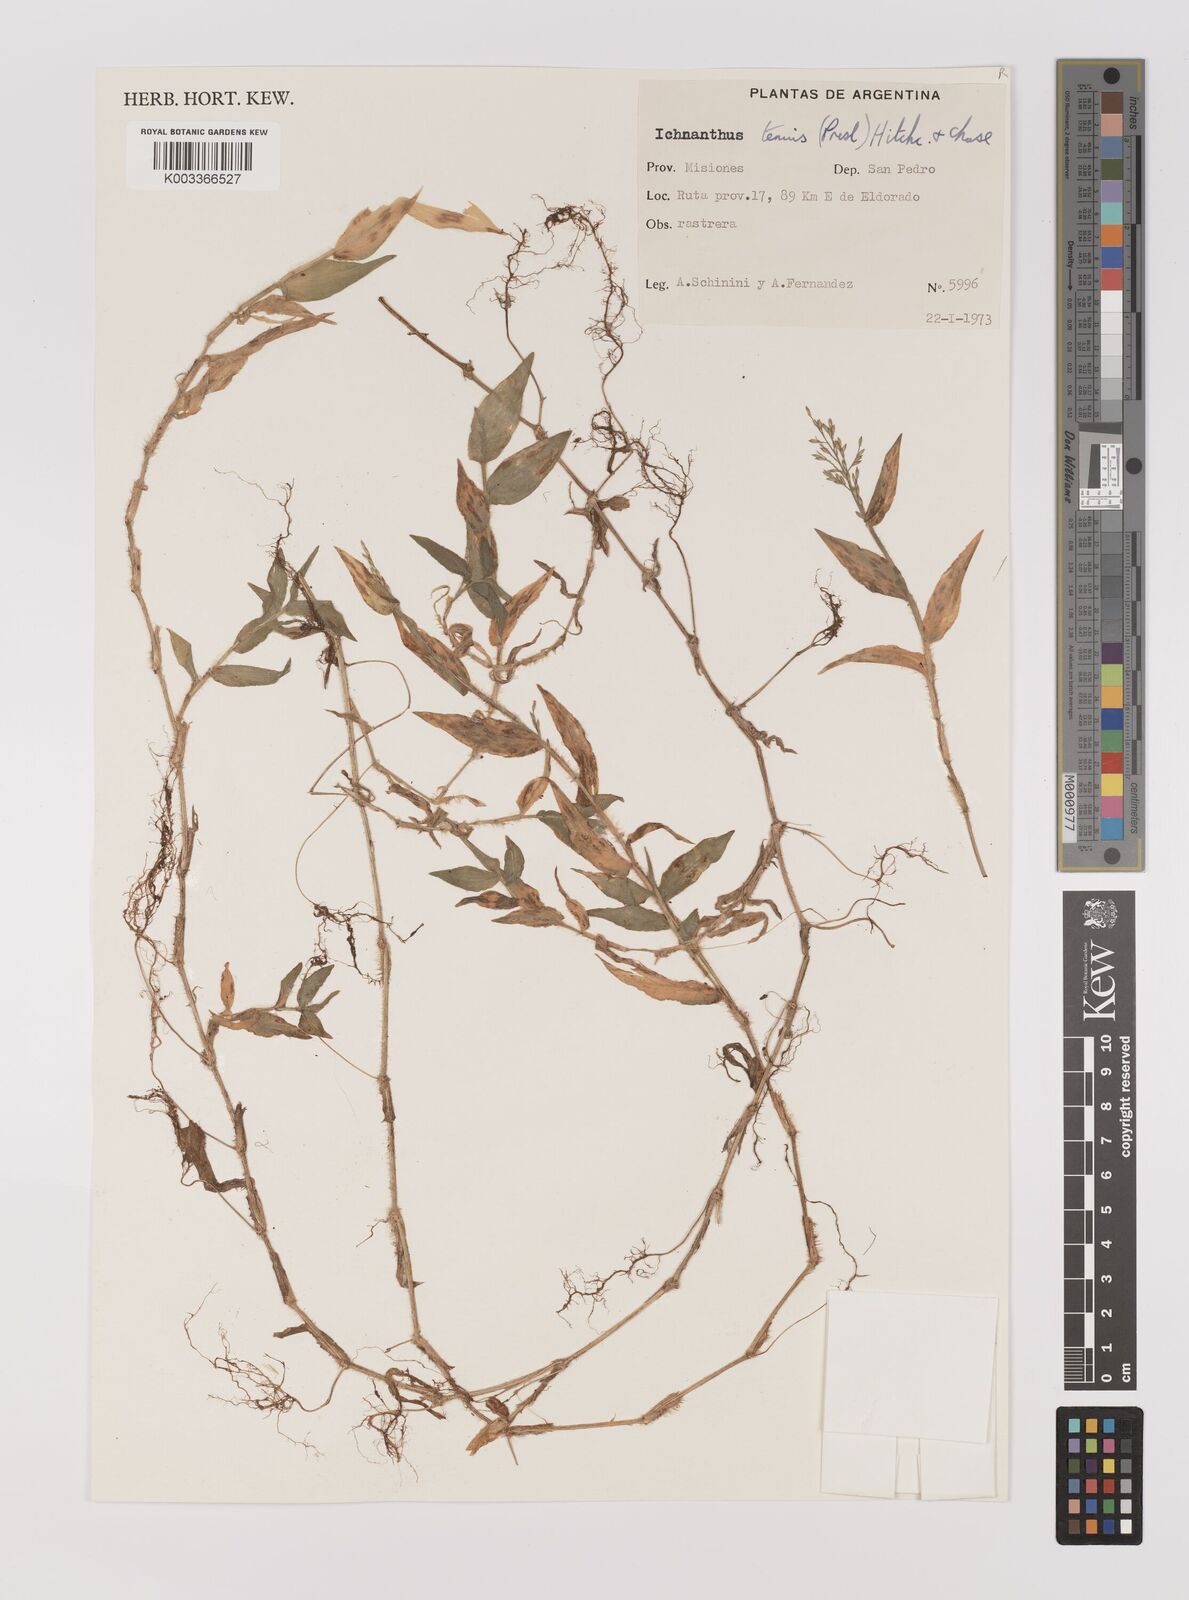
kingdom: Plantae
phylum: Tracheophyta
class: Liliopsida
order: Poales
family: Poaceae
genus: Ichnanthus
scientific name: Ichnanthus tenuis
